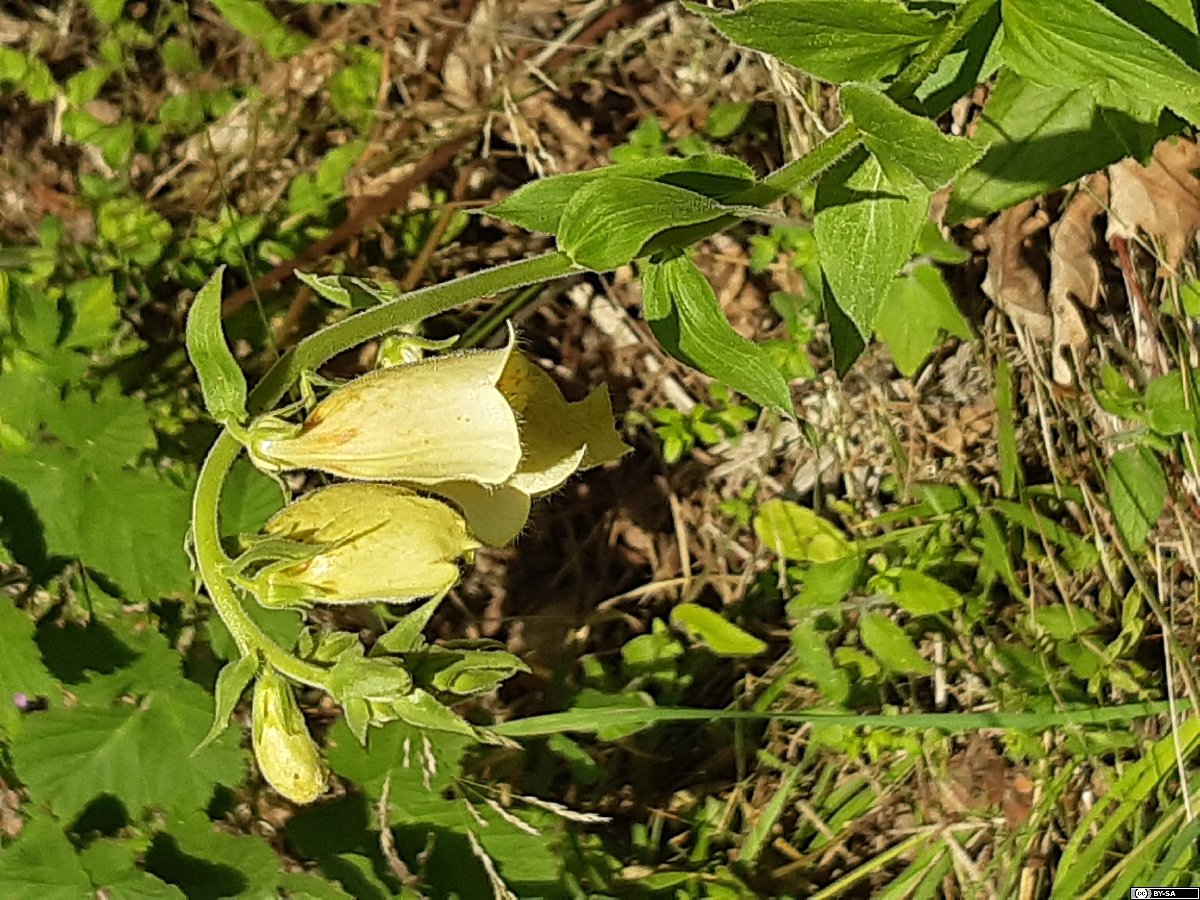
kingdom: Plantae
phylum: Tracheophyta
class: Magnoliopsida
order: Lamiales
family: Plantaginaceae
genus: Digitalis
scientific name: Digitalis grandiflora
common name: Yellow foxglove
